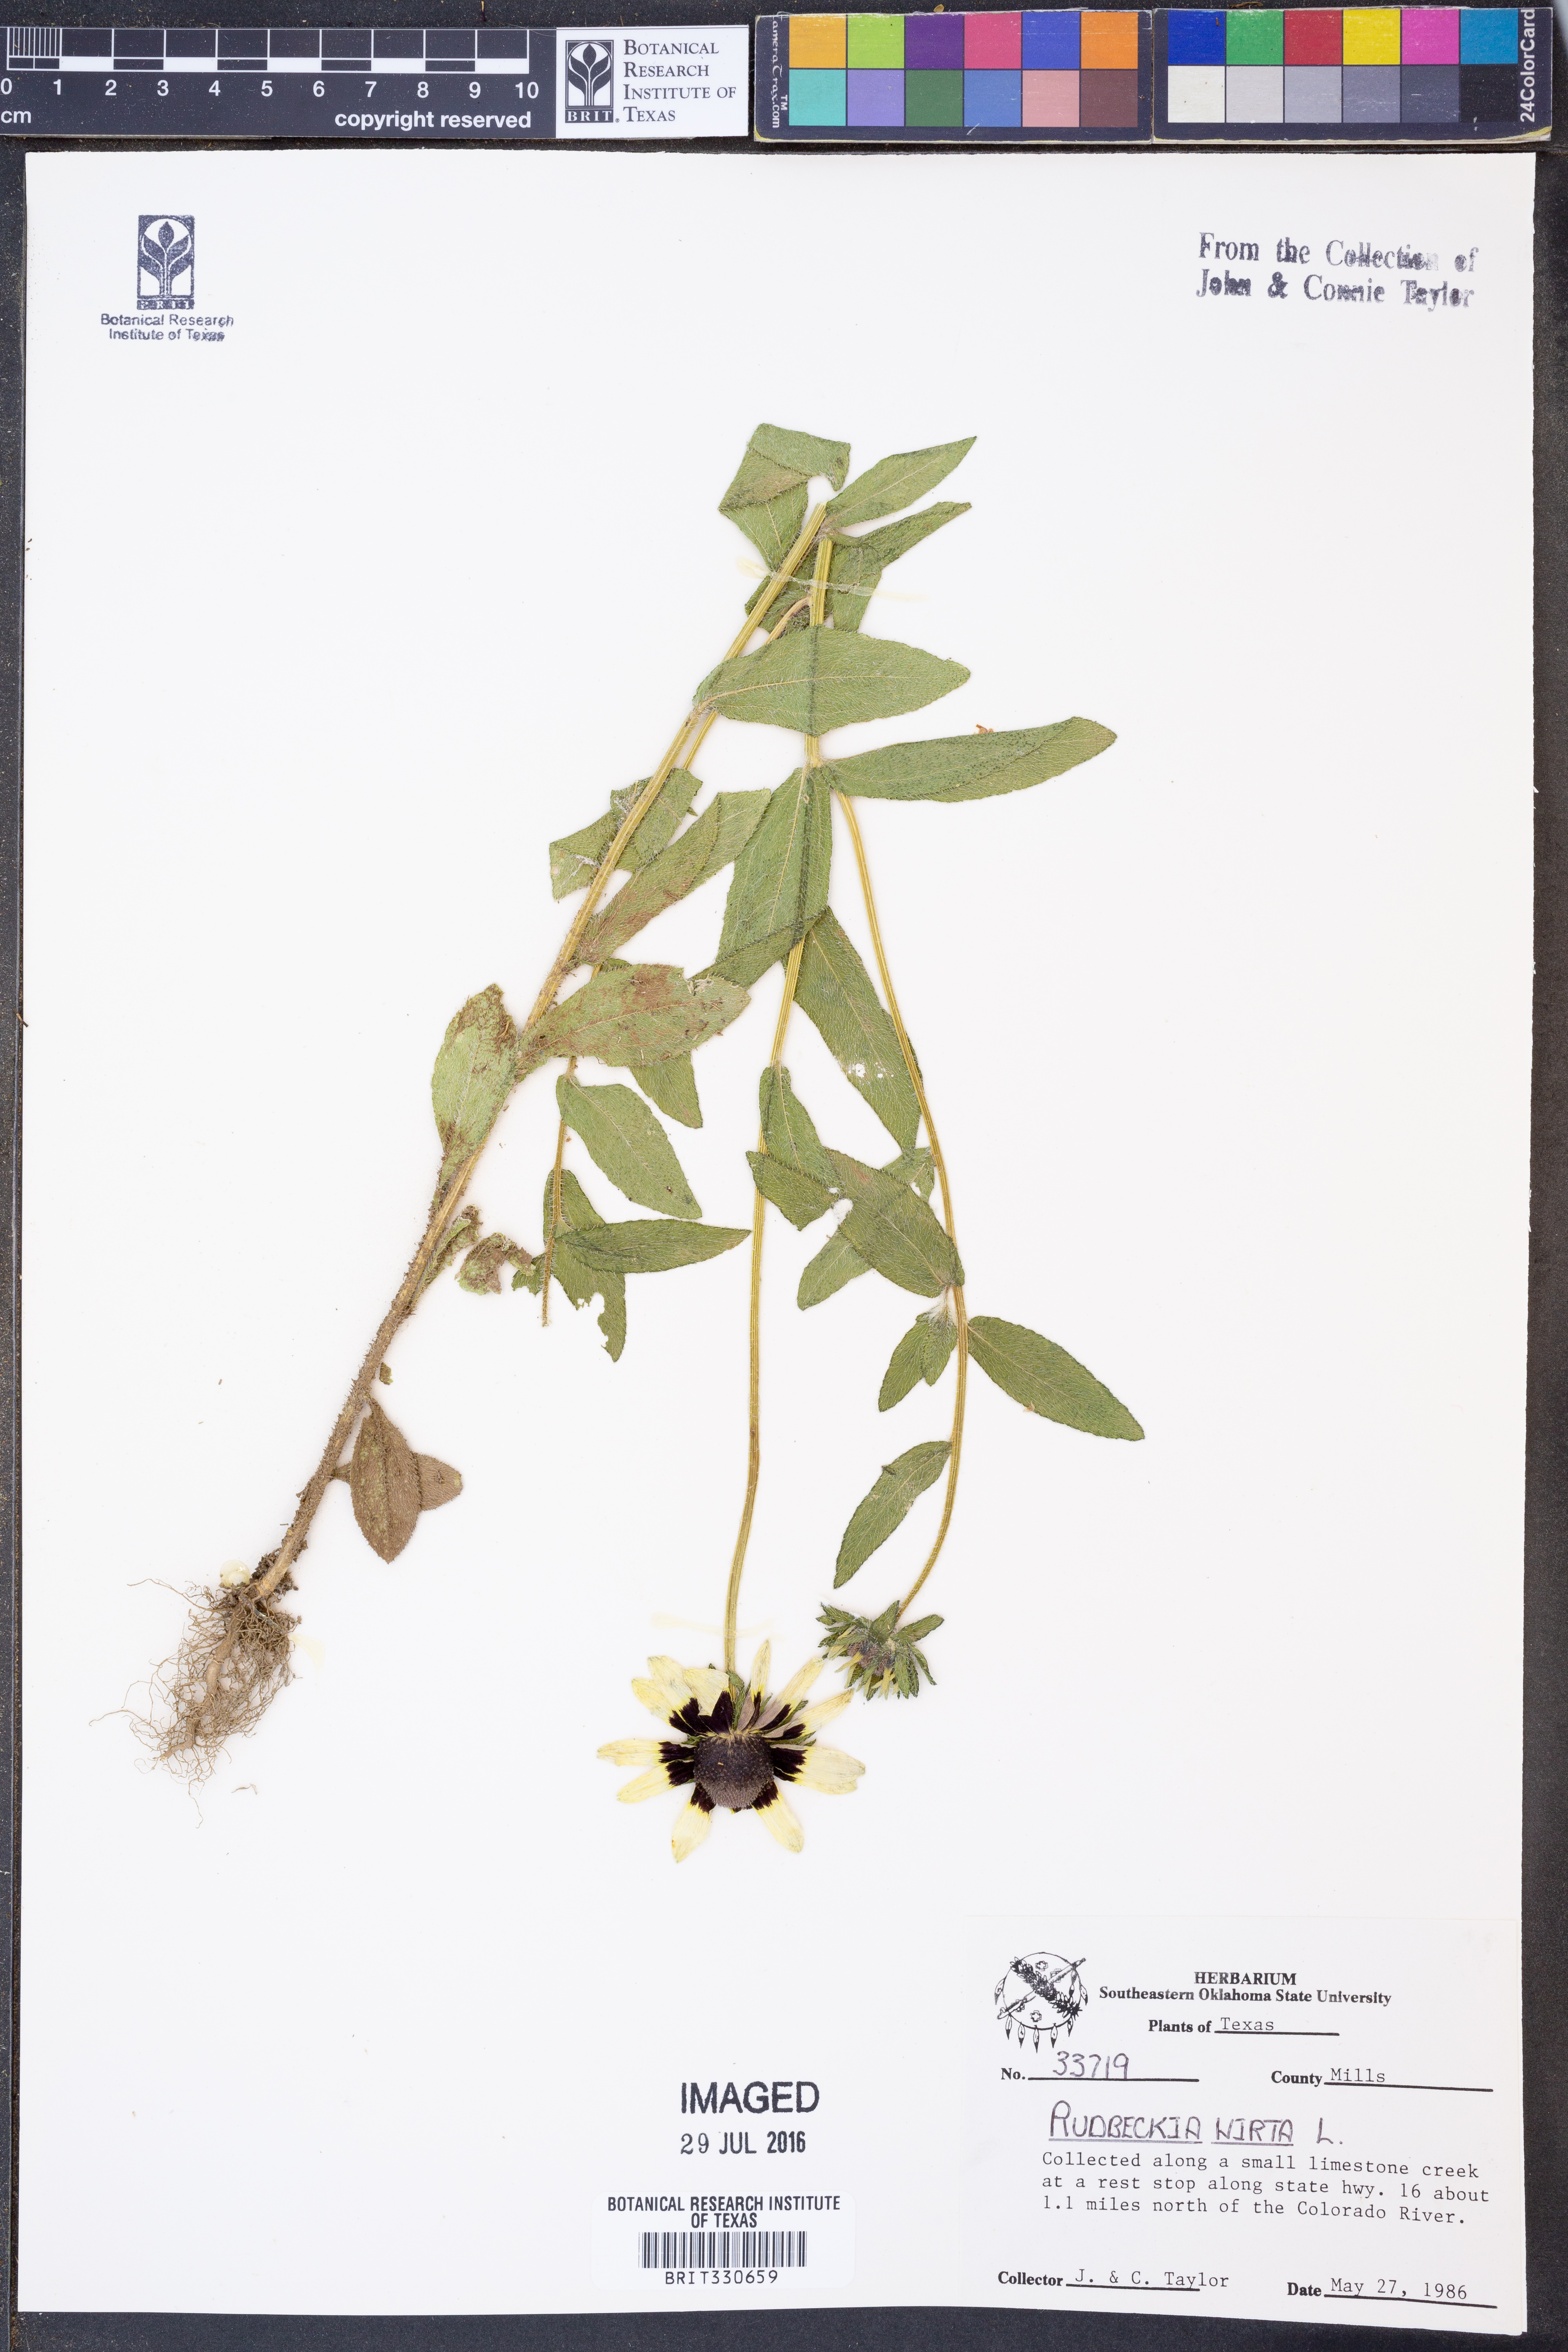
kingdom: Plantae
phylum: Tracheophyta
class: Magnoliopsida
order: Asterales
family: Asteraceae
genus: Rudbeckia
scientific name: Rudbeckia hirta
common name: Black-eyed-susan
